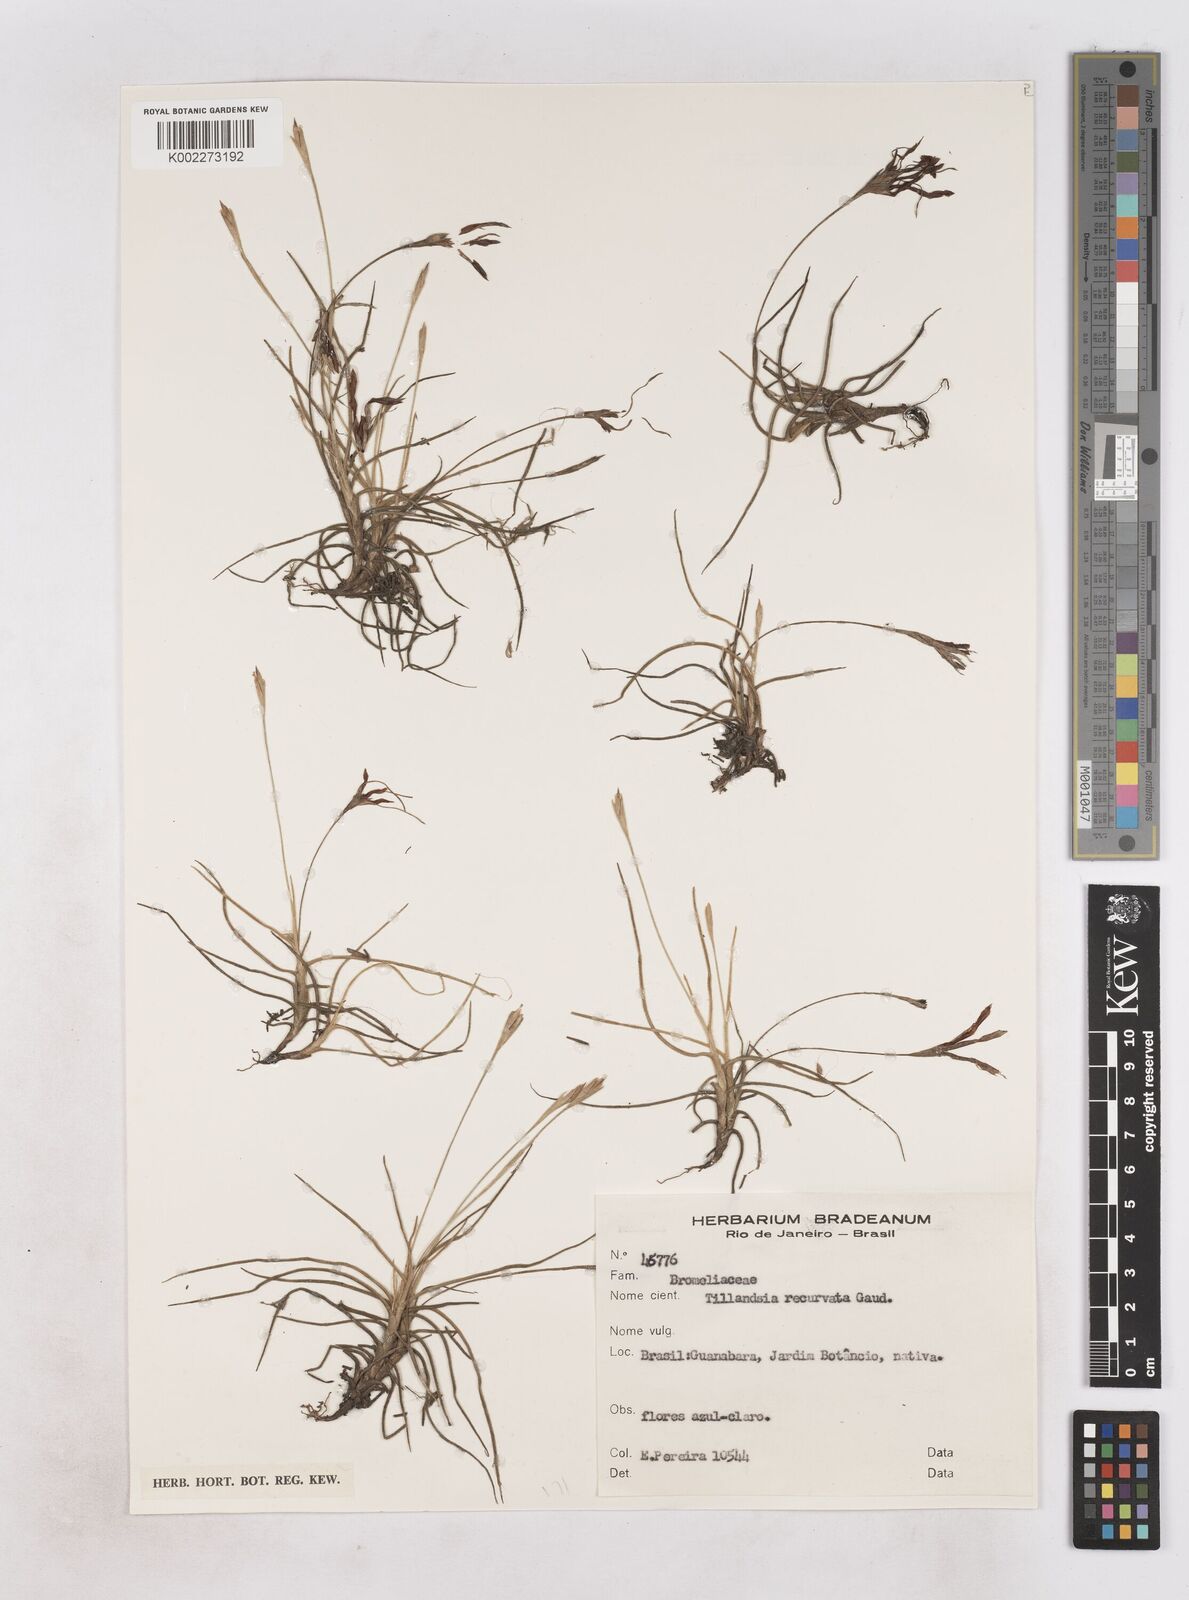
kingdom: Plantae
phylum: Tracheophyta
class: Liliopsida
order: Poales
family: Bromeliaceae
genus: Tillandsia
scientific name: Tillandsia recurvata
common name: Small ballmoss
